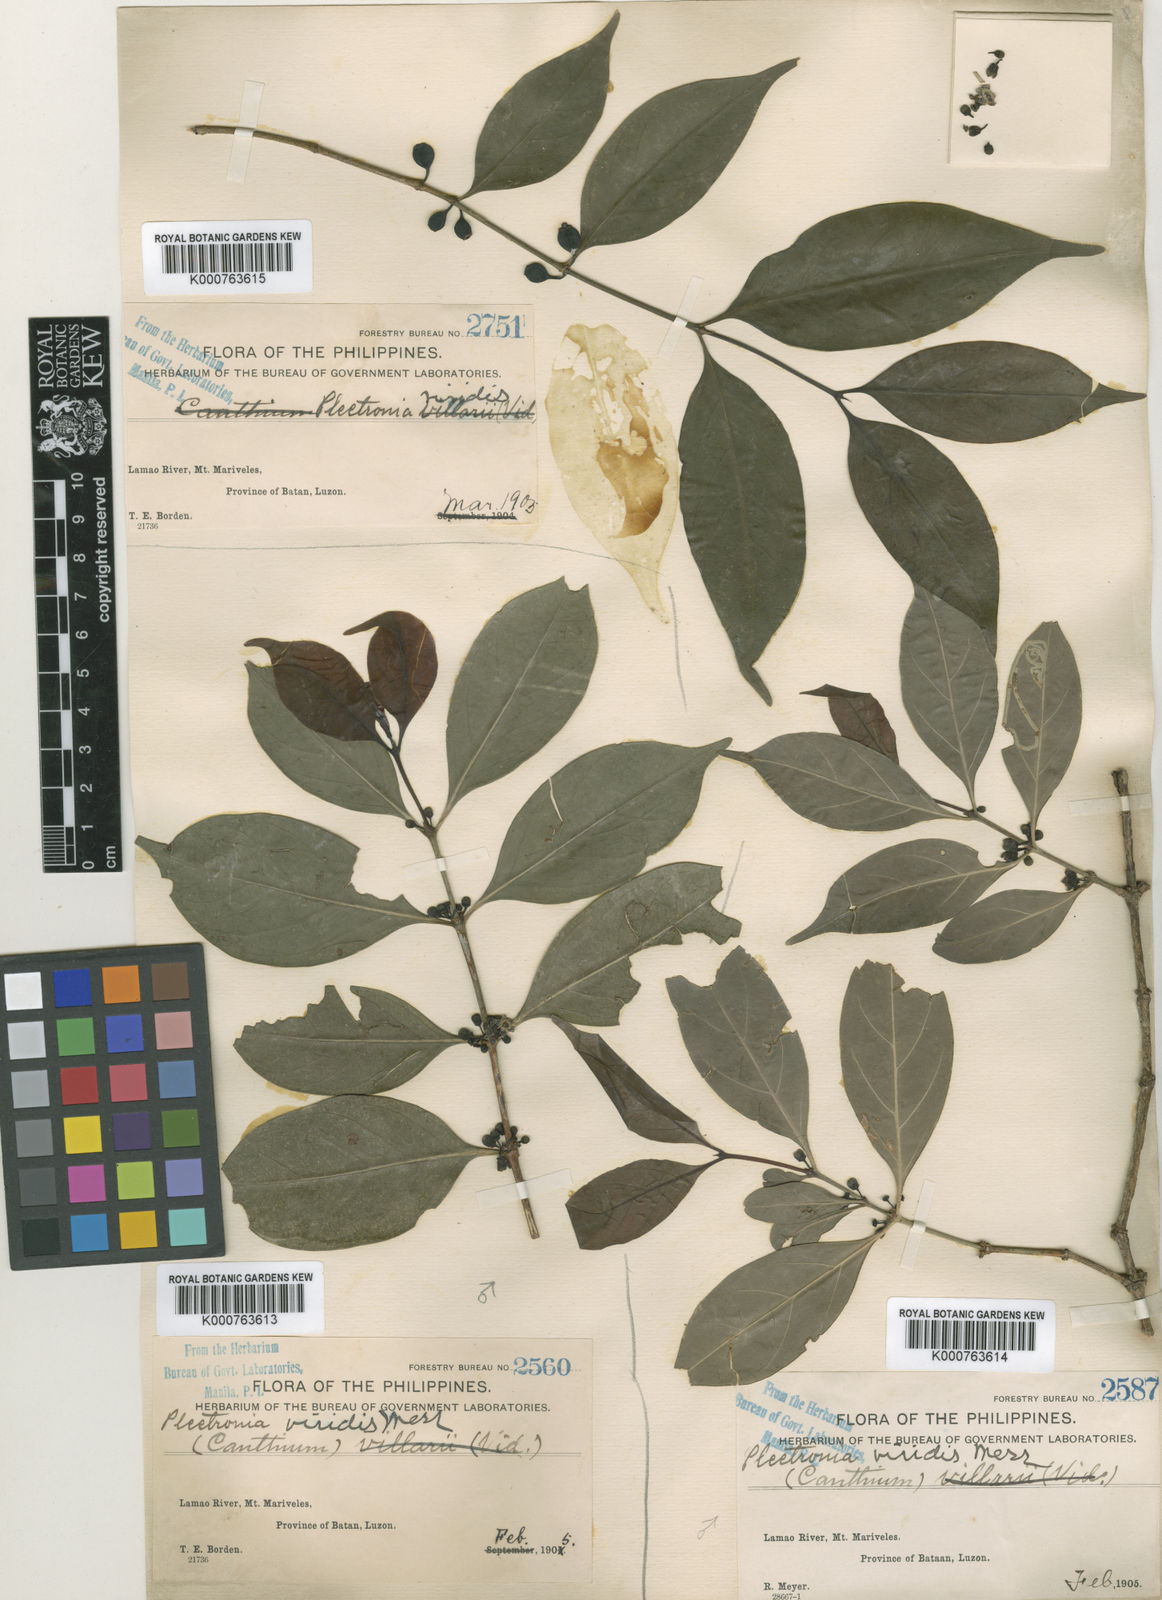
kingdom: Plantae
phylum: Tracheophyta
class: Magnoliopsida
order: Gentianales
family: Rubiaceae
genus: Dibridsonia
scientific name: Dibridsonia conferta
